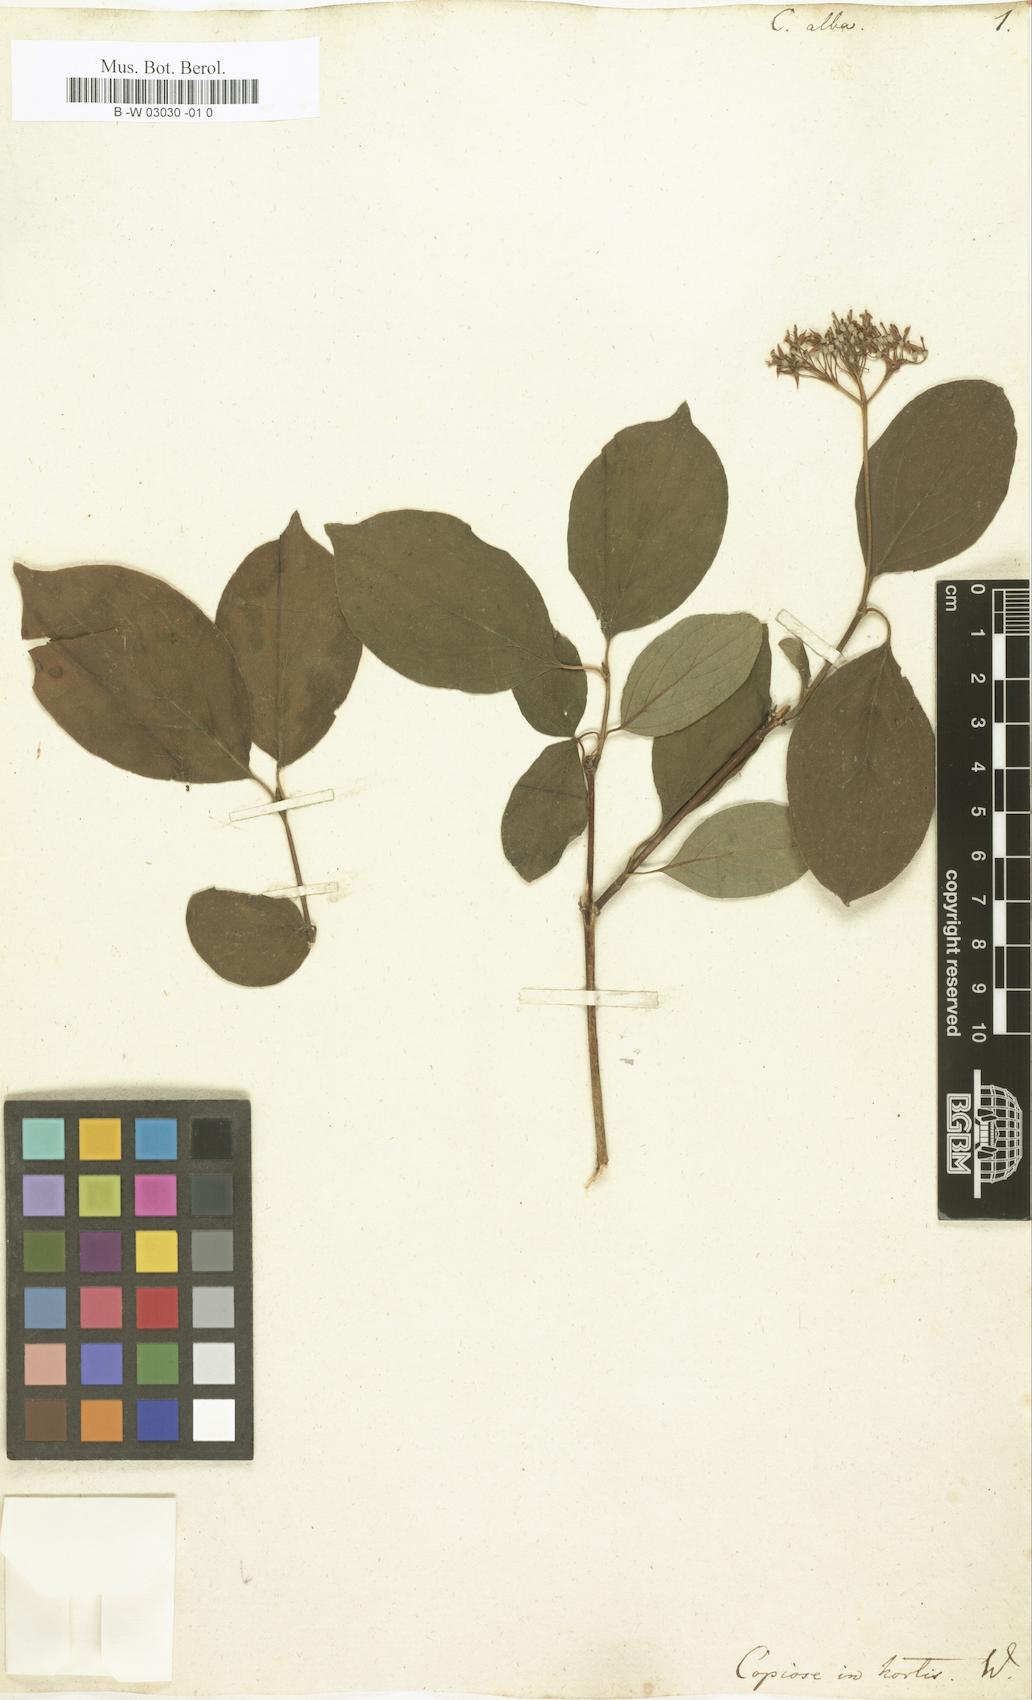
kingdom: Plantae
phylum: Tracheophyta
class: Magnoliopsida
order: Cornales
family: Cornaceae
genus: Cornus
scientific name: Cornus alba
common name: White dogwood
